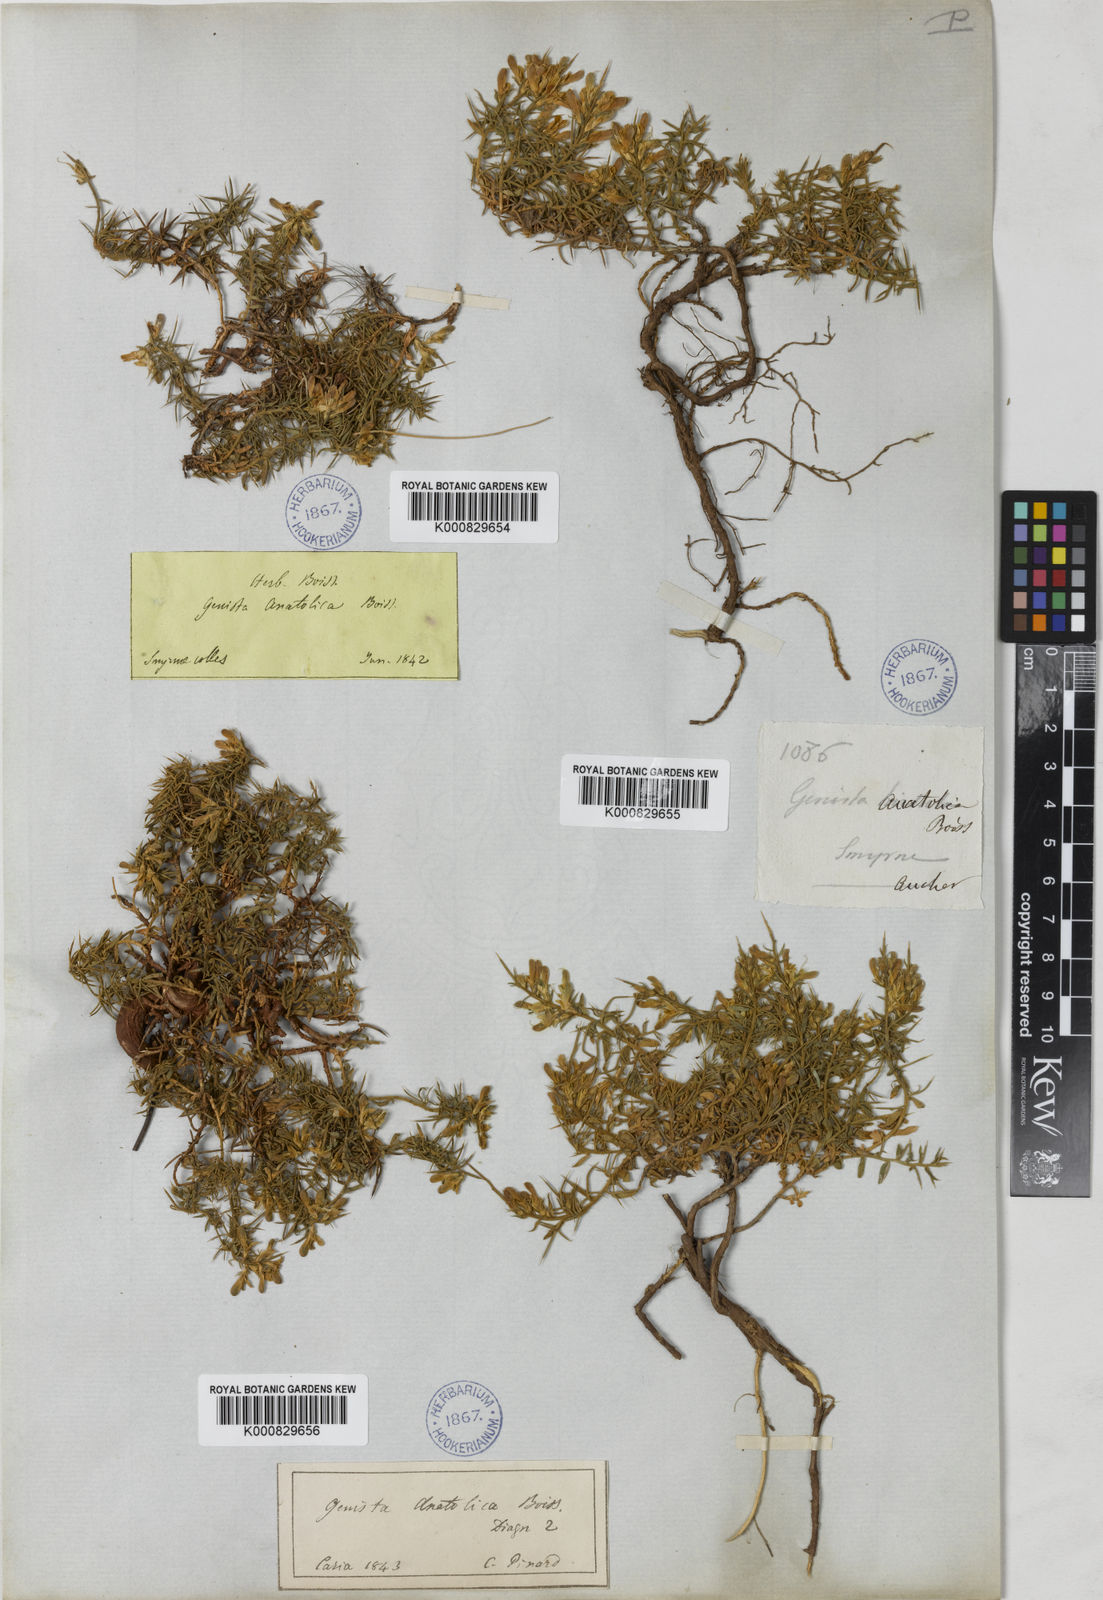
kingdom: Plantae
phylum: Tracheophyta
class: Magnoliopsida
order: Fabales
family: Fabaceae
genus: Genista
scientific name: Genista anatolica
